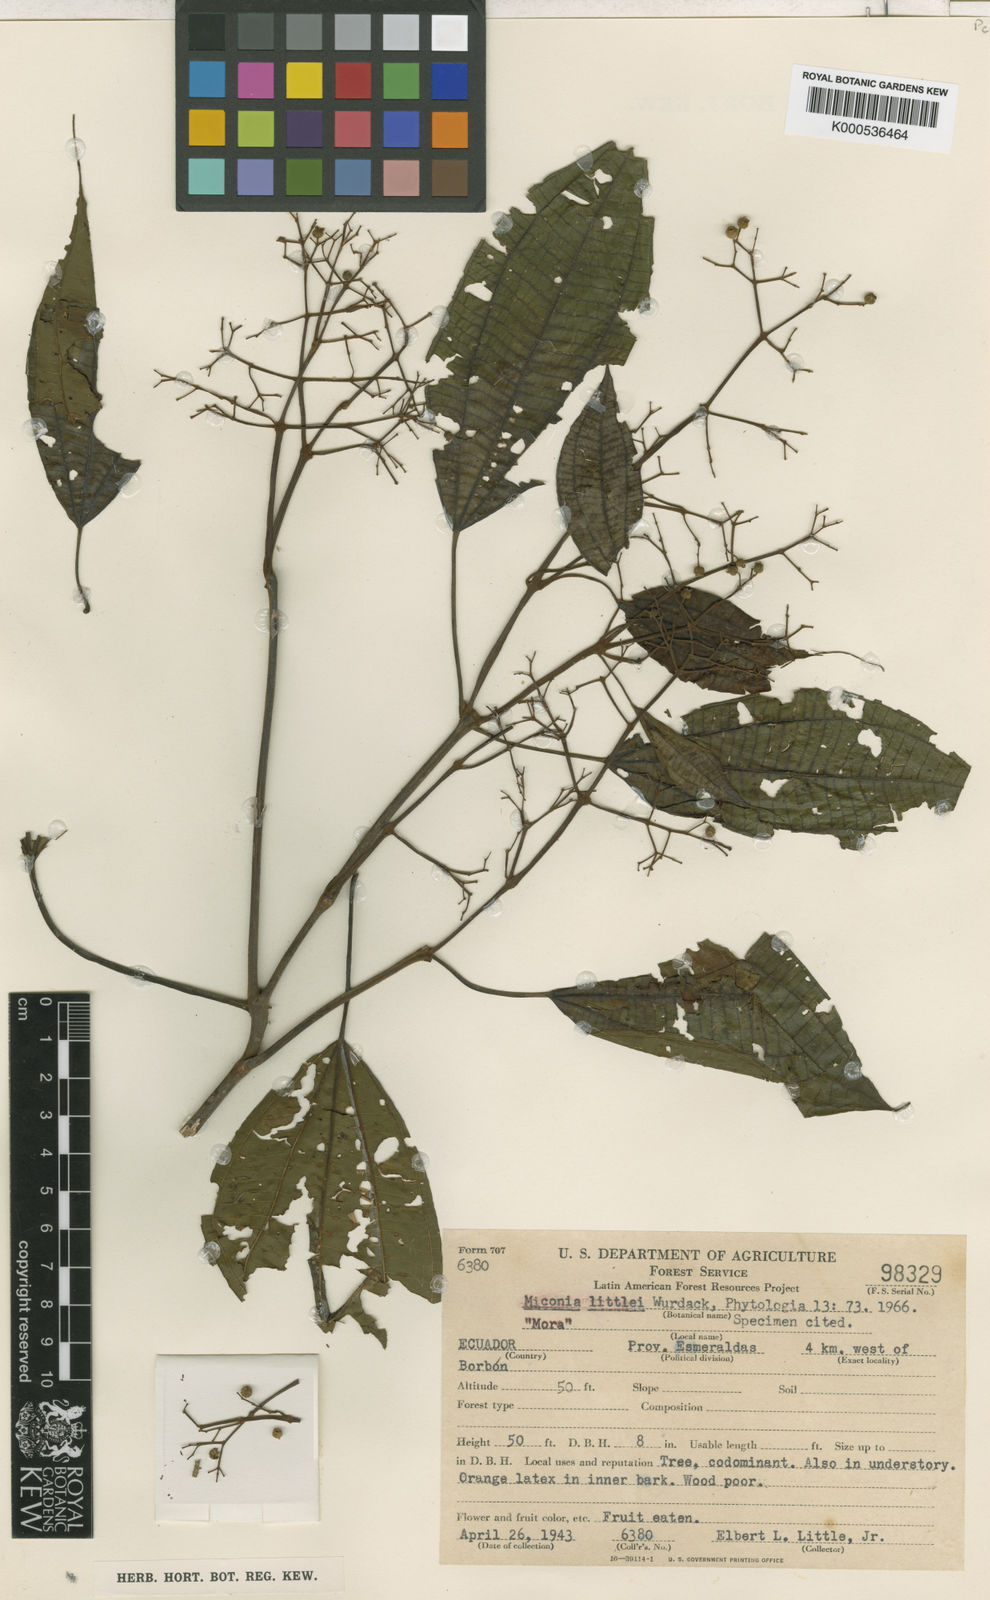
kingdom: Plantae
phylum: Tracheophyta
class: Magnoliopsida
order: Myrtales
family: Melastomataceae
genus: Miconia
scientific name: Miconia littlei
